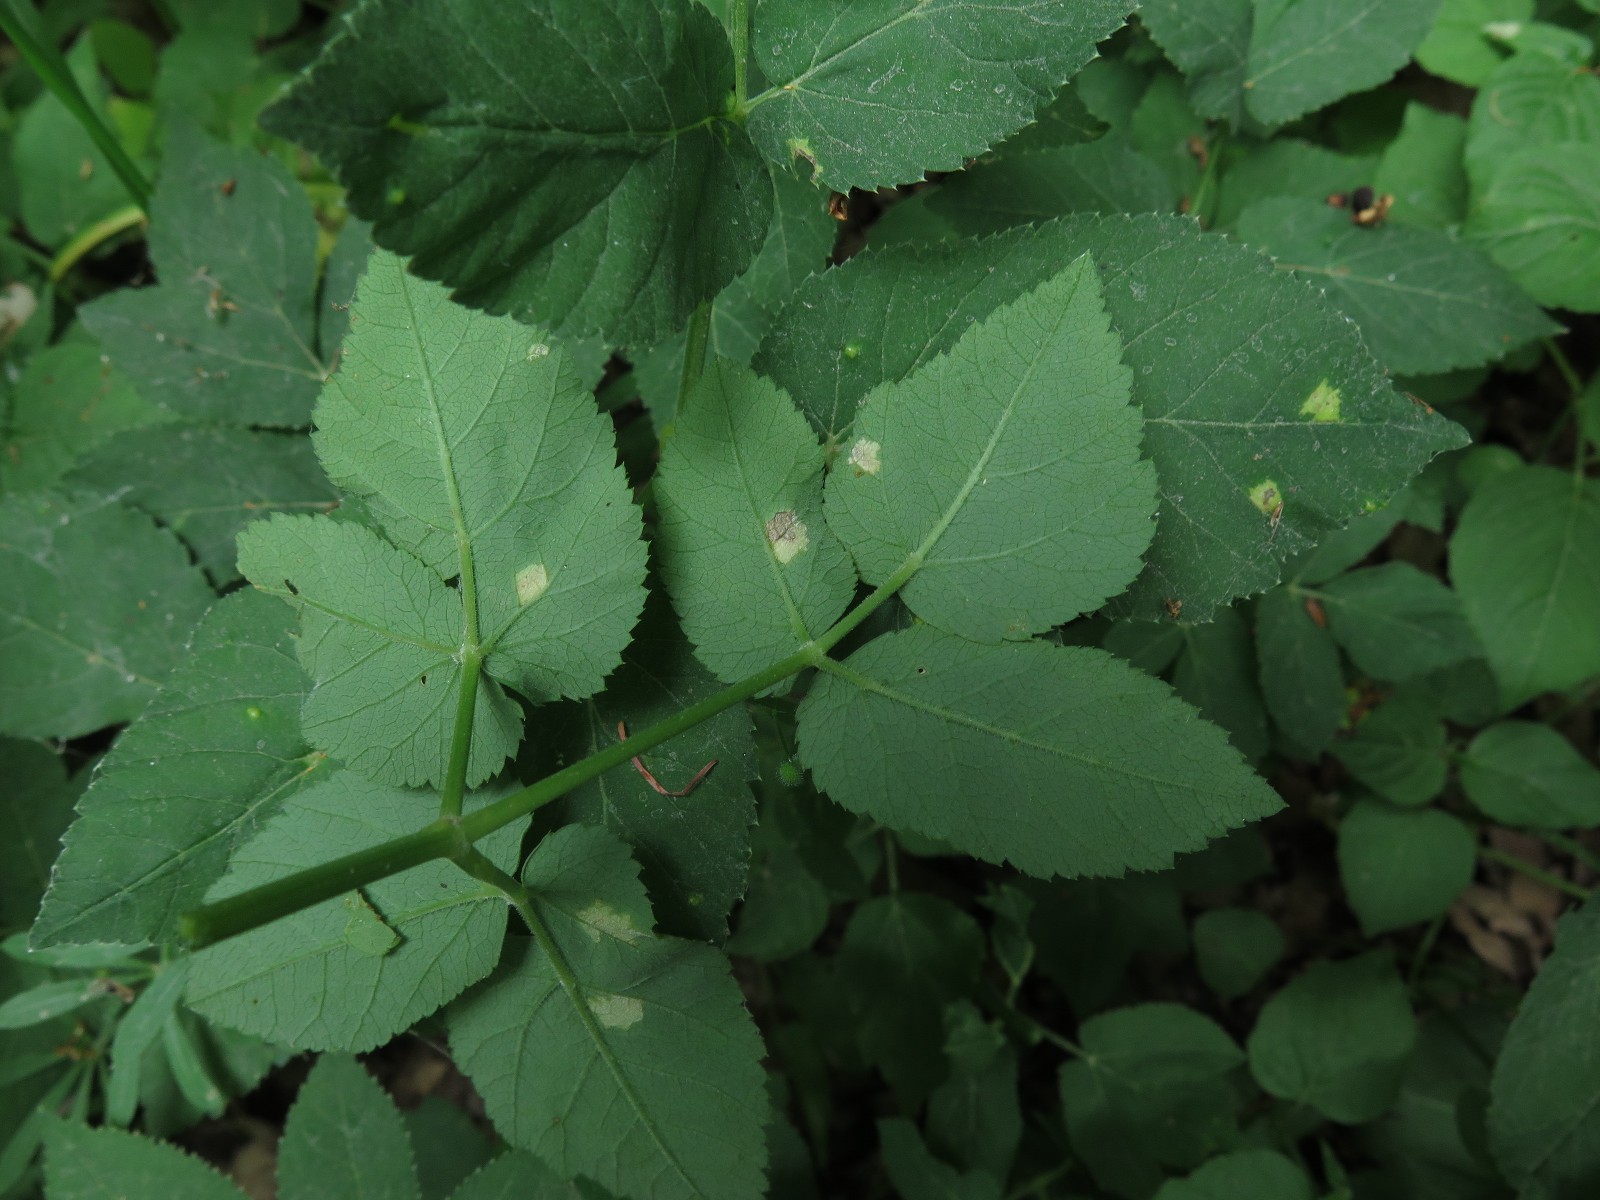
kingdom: Chromista
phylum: Oomycota
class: Peronosporea
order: Peronosporales
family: Peronosporaceae
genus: Peronospora
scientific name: Peronospora crustosa
